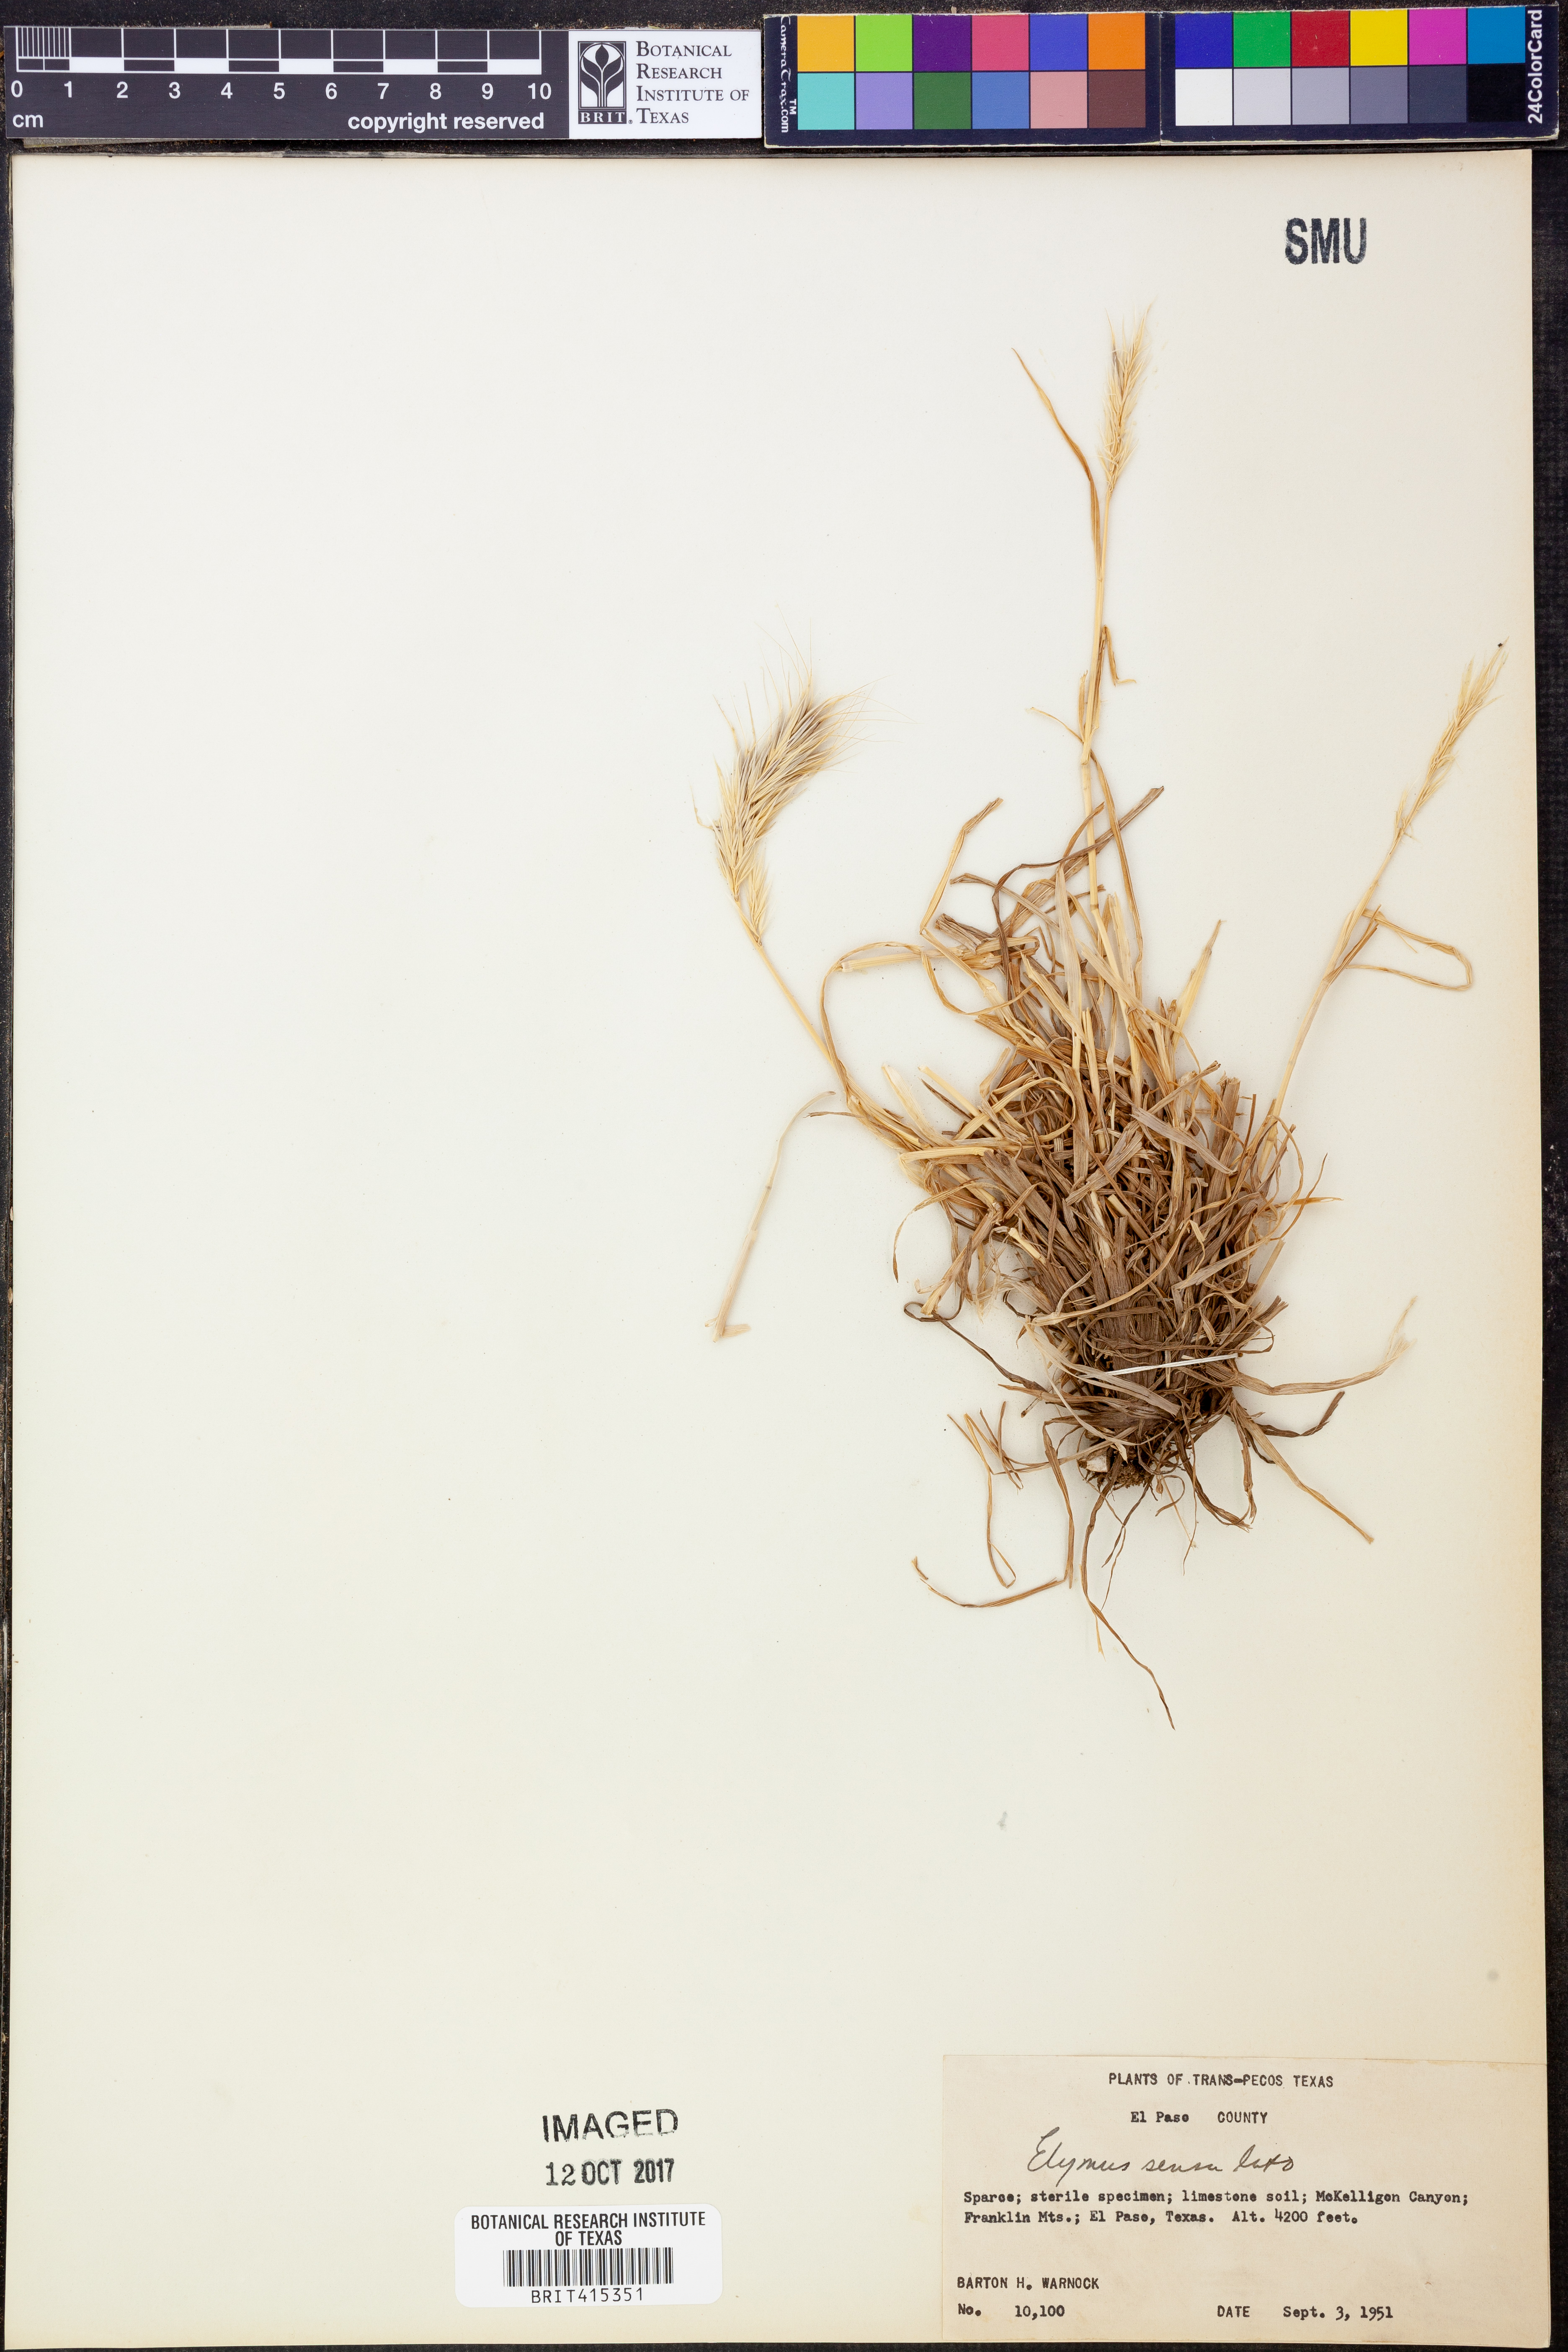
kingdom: Plantae
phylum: Tracheophyta
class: Liliopsida
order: Poales
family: Poaceae
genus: Elymus
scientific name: Elymus
